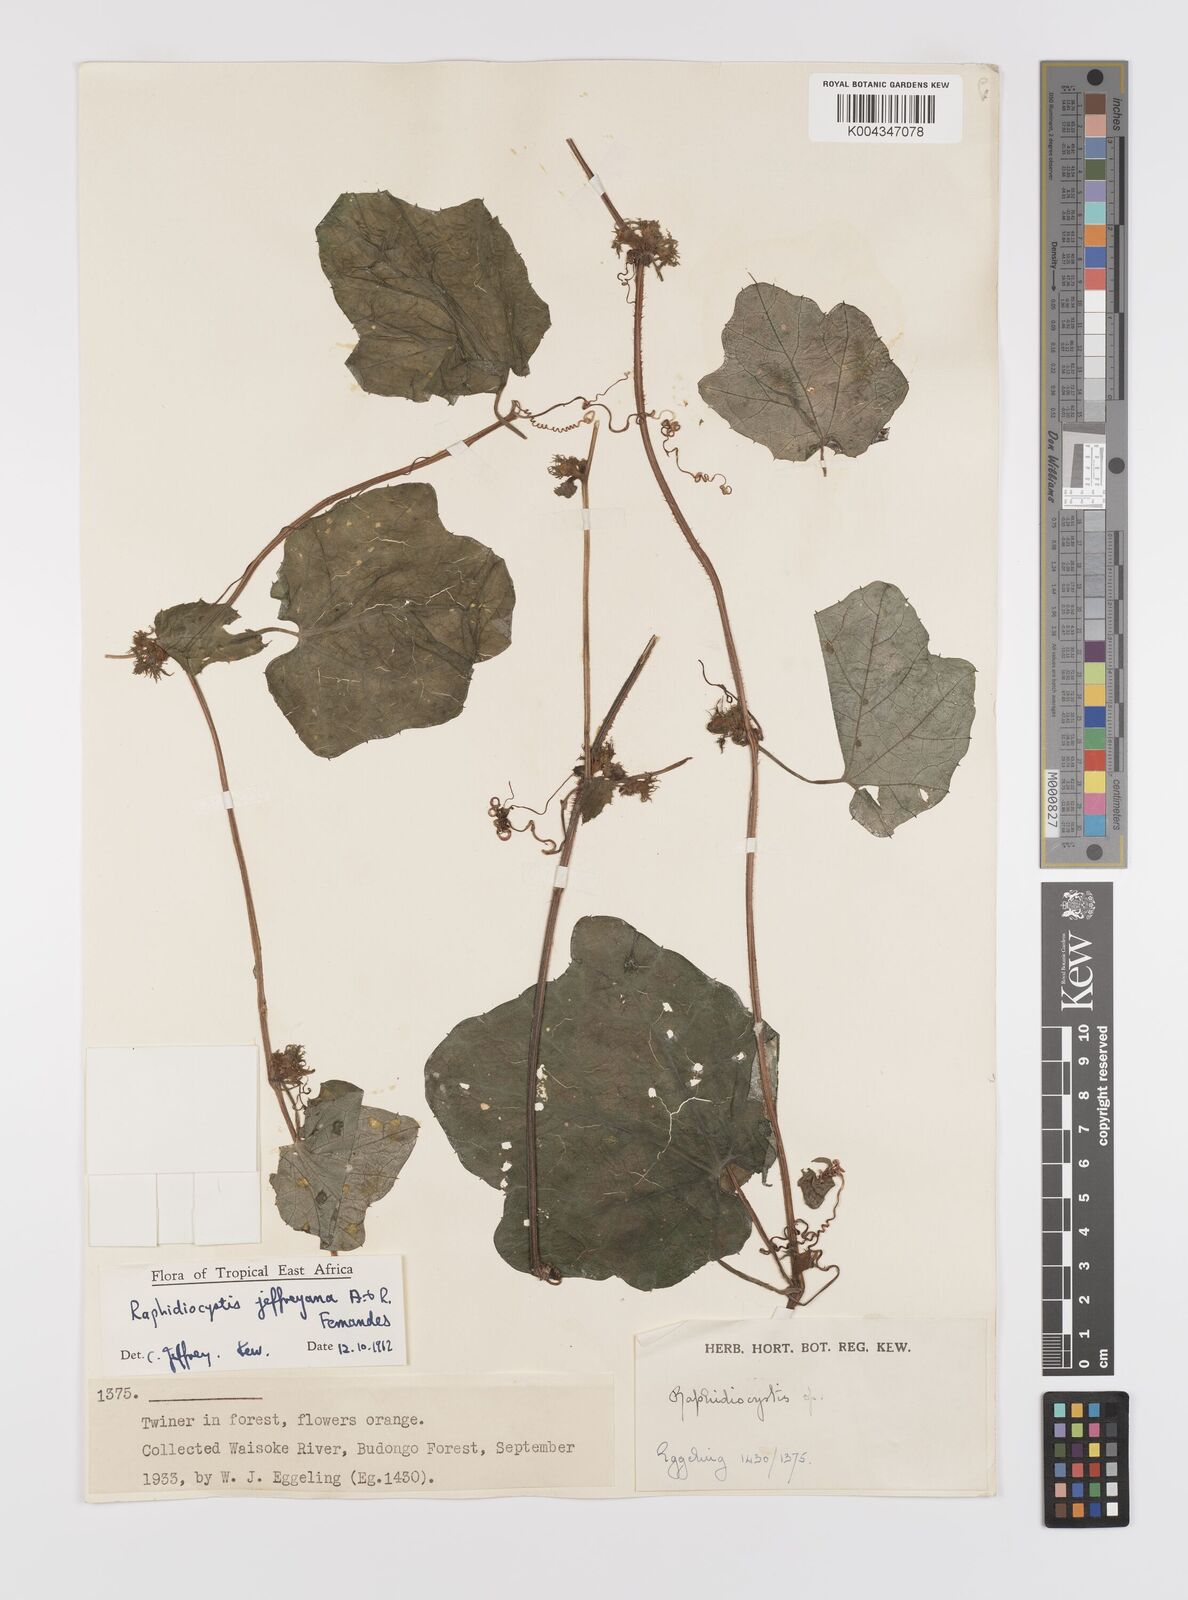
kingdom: Plantae
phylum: Tracheophyta
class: Magnoliopsida
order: Cucurbitales
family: Cucurbitaceae
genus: Raphidiocystis
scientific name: Raphidiocystis jeffreyana
